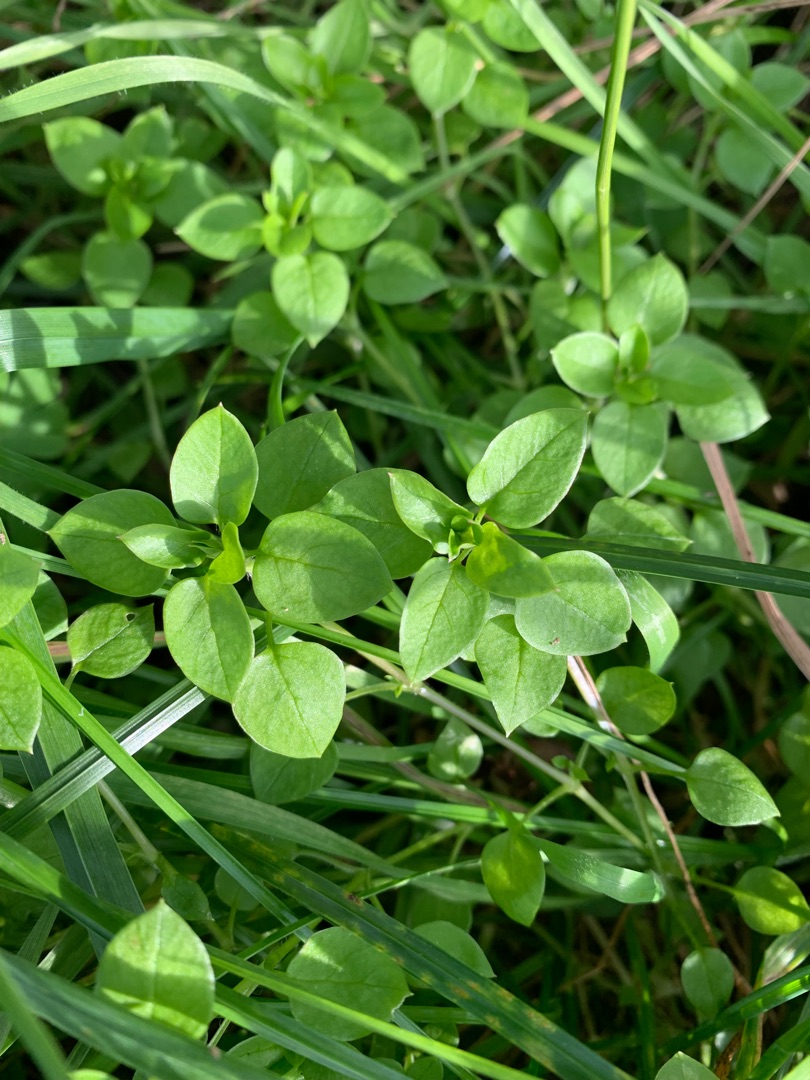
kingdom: Plantae
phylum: Tracheophyta
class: Magnoliopsida
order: Caryophyllales
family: Caryophyllaceae
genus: Stellaria
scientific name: Stellaria media
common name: Almindelig fuglegræs
